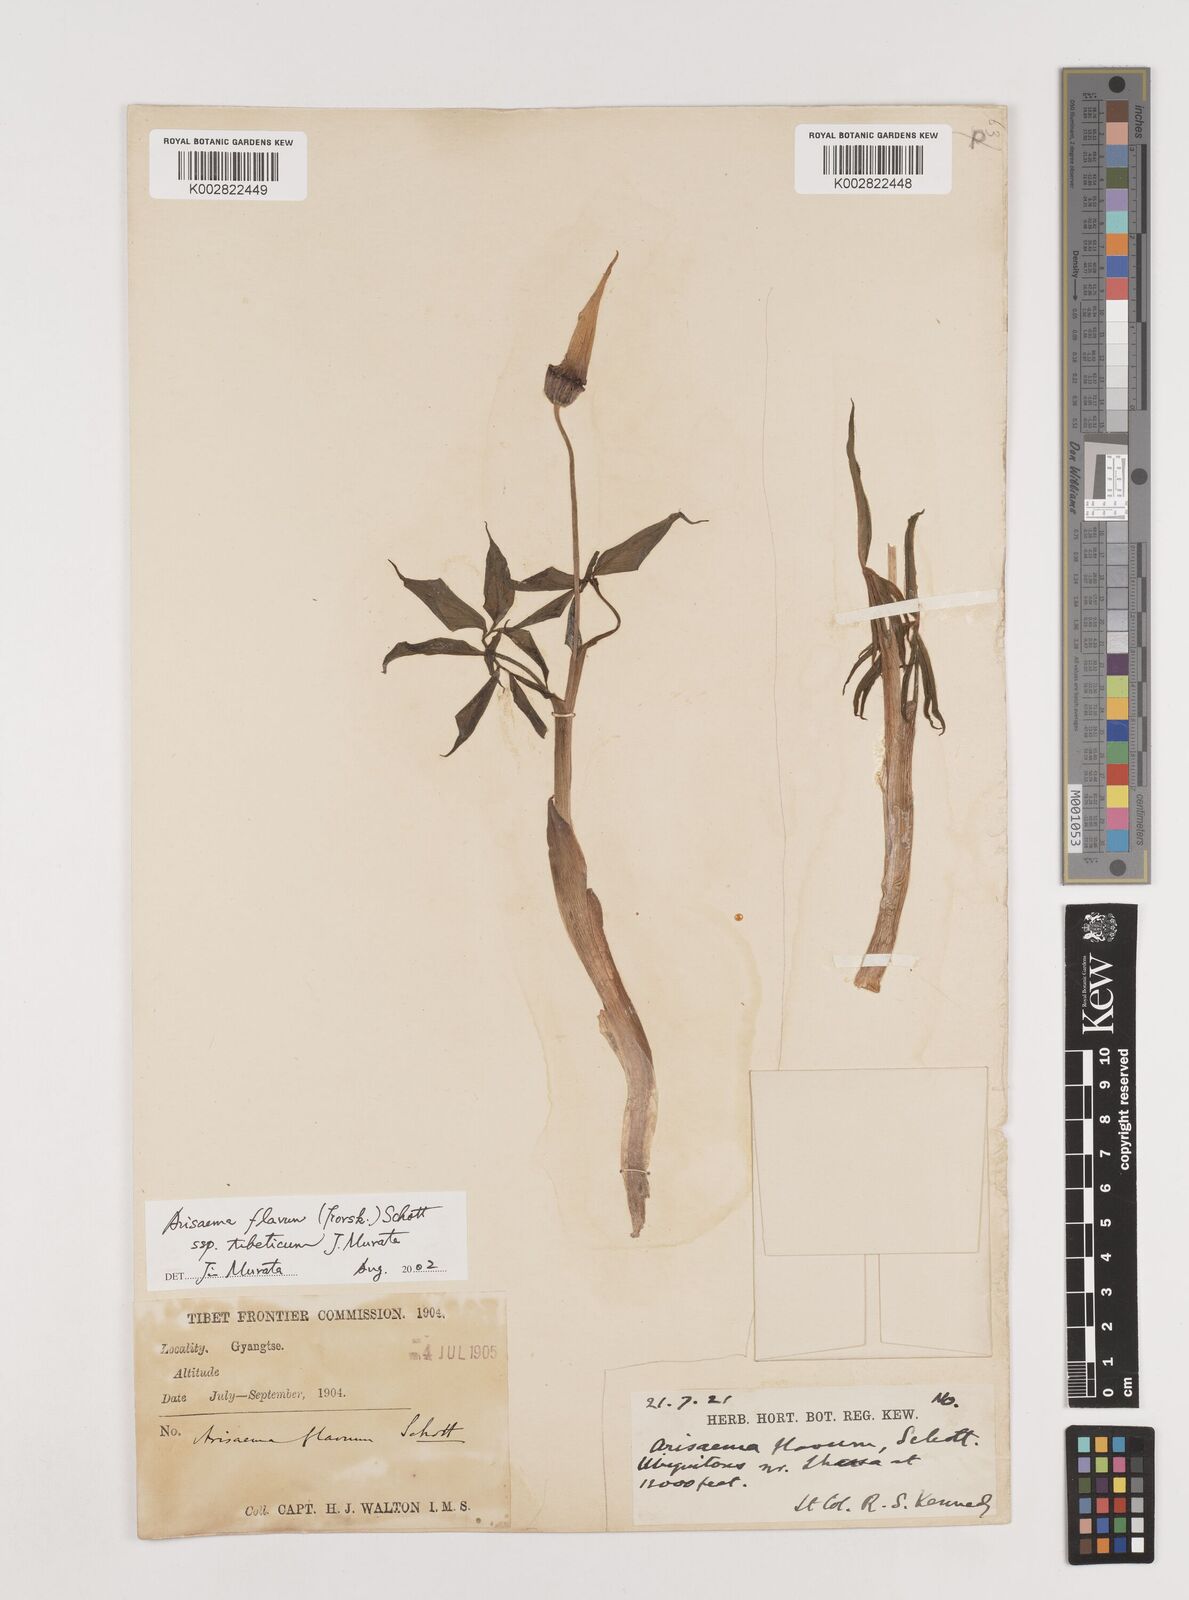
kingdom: Plantae
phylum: Tracheophyta
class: Liliopsida
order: Alismatales
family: Araceae
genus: Arisaema
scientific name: Arisaema flavum
